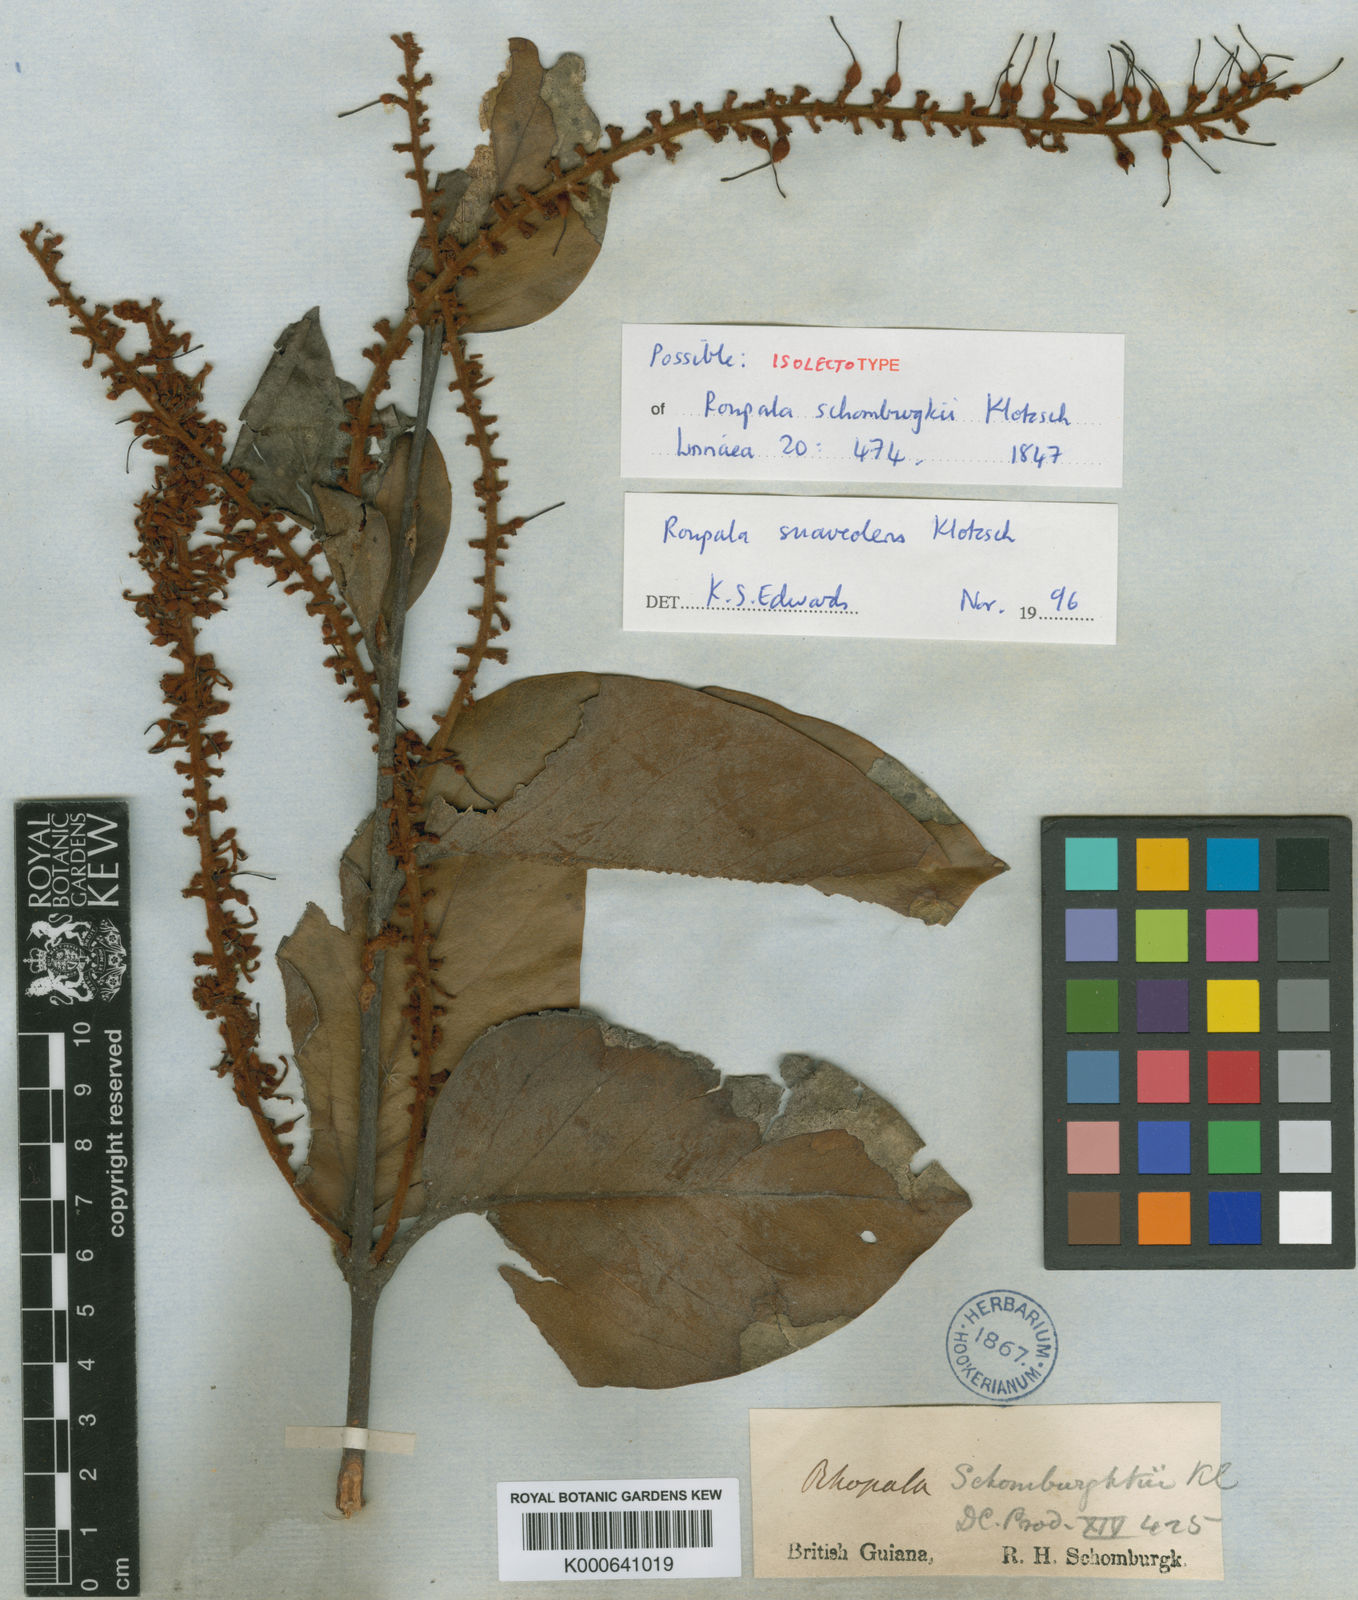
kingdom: Plantae
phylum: Tracheophyta
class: Magnoliopsida
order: Proteales
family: Proteaceae
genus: Roupala
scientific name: Roupala suaveolens
